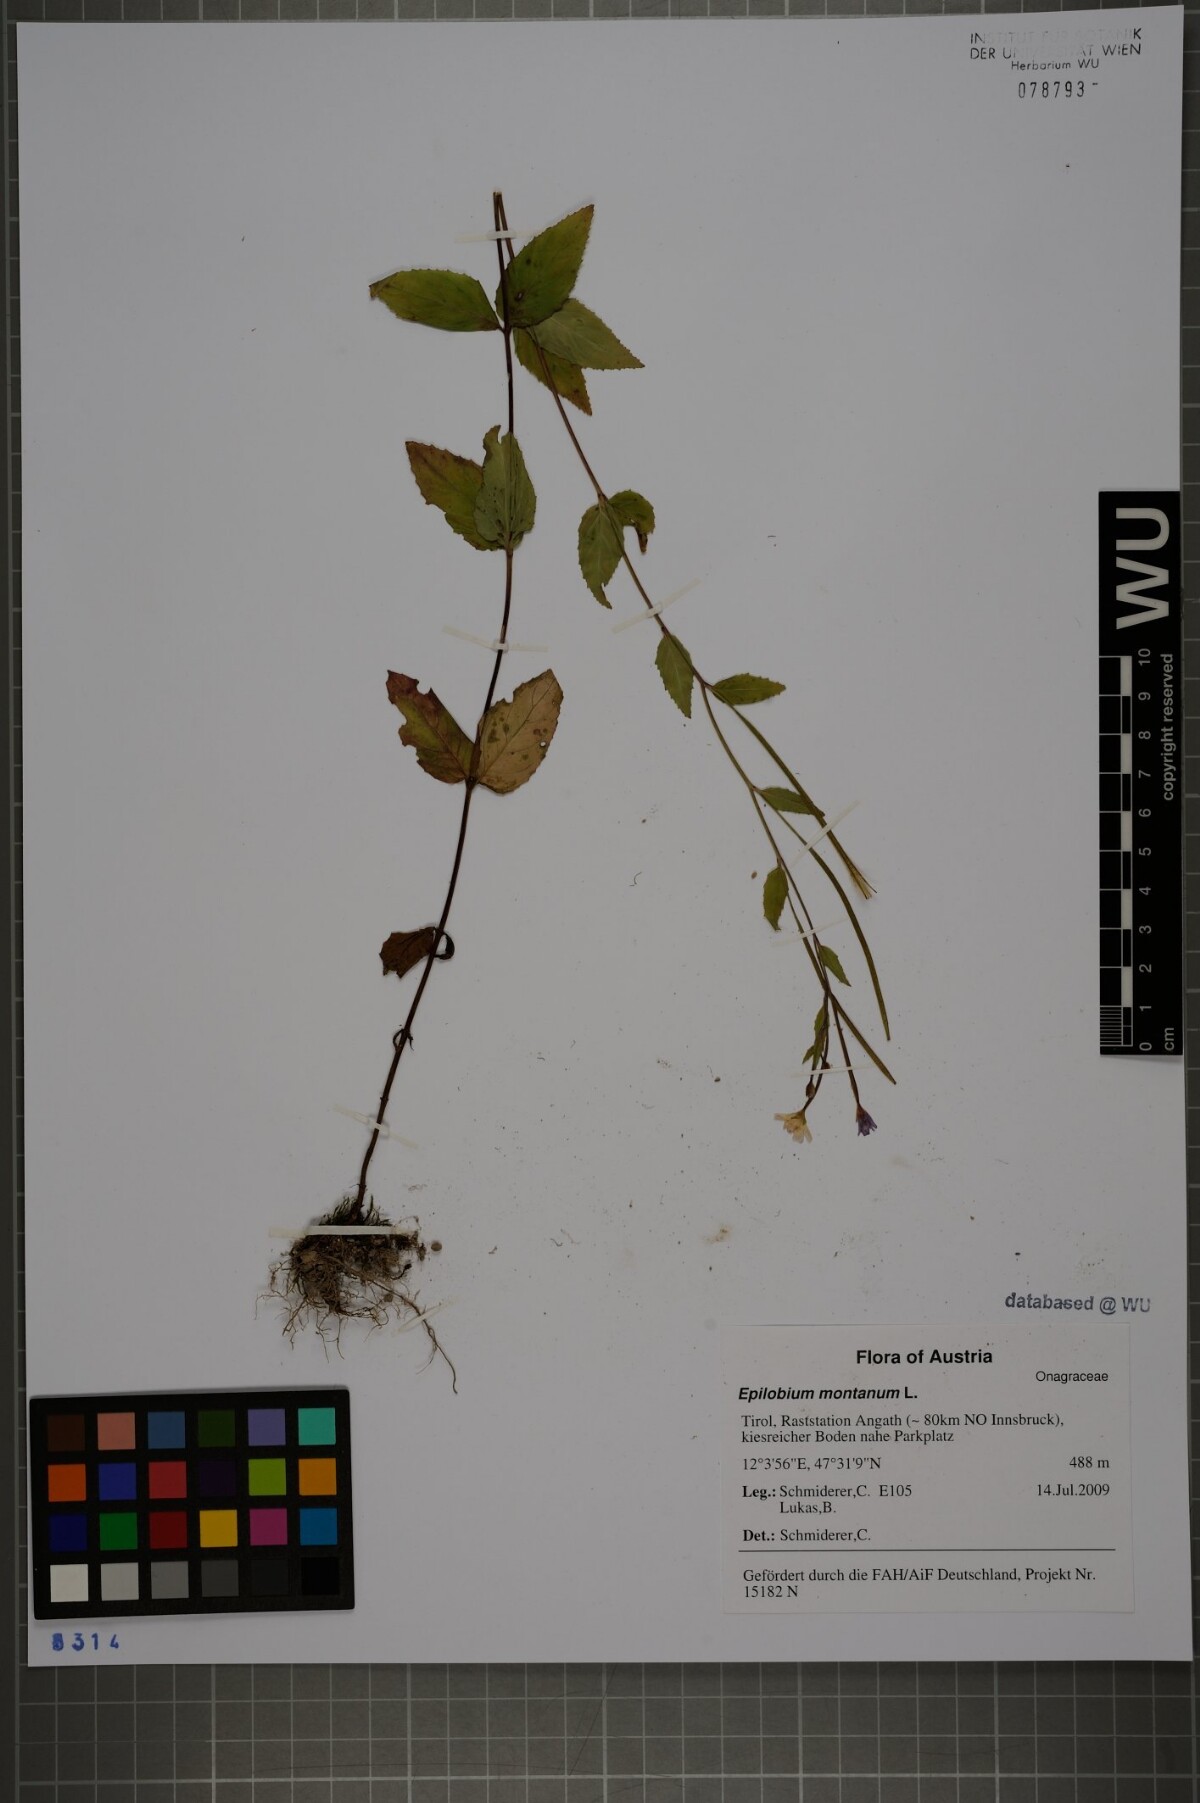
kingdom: Plantae
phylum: Tracheophyta
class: Magnoliopsida
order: Myrtales
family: Onagraceae
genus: Epilobium
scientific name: Epilobium montanum
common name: Broad-leaved willowherb
